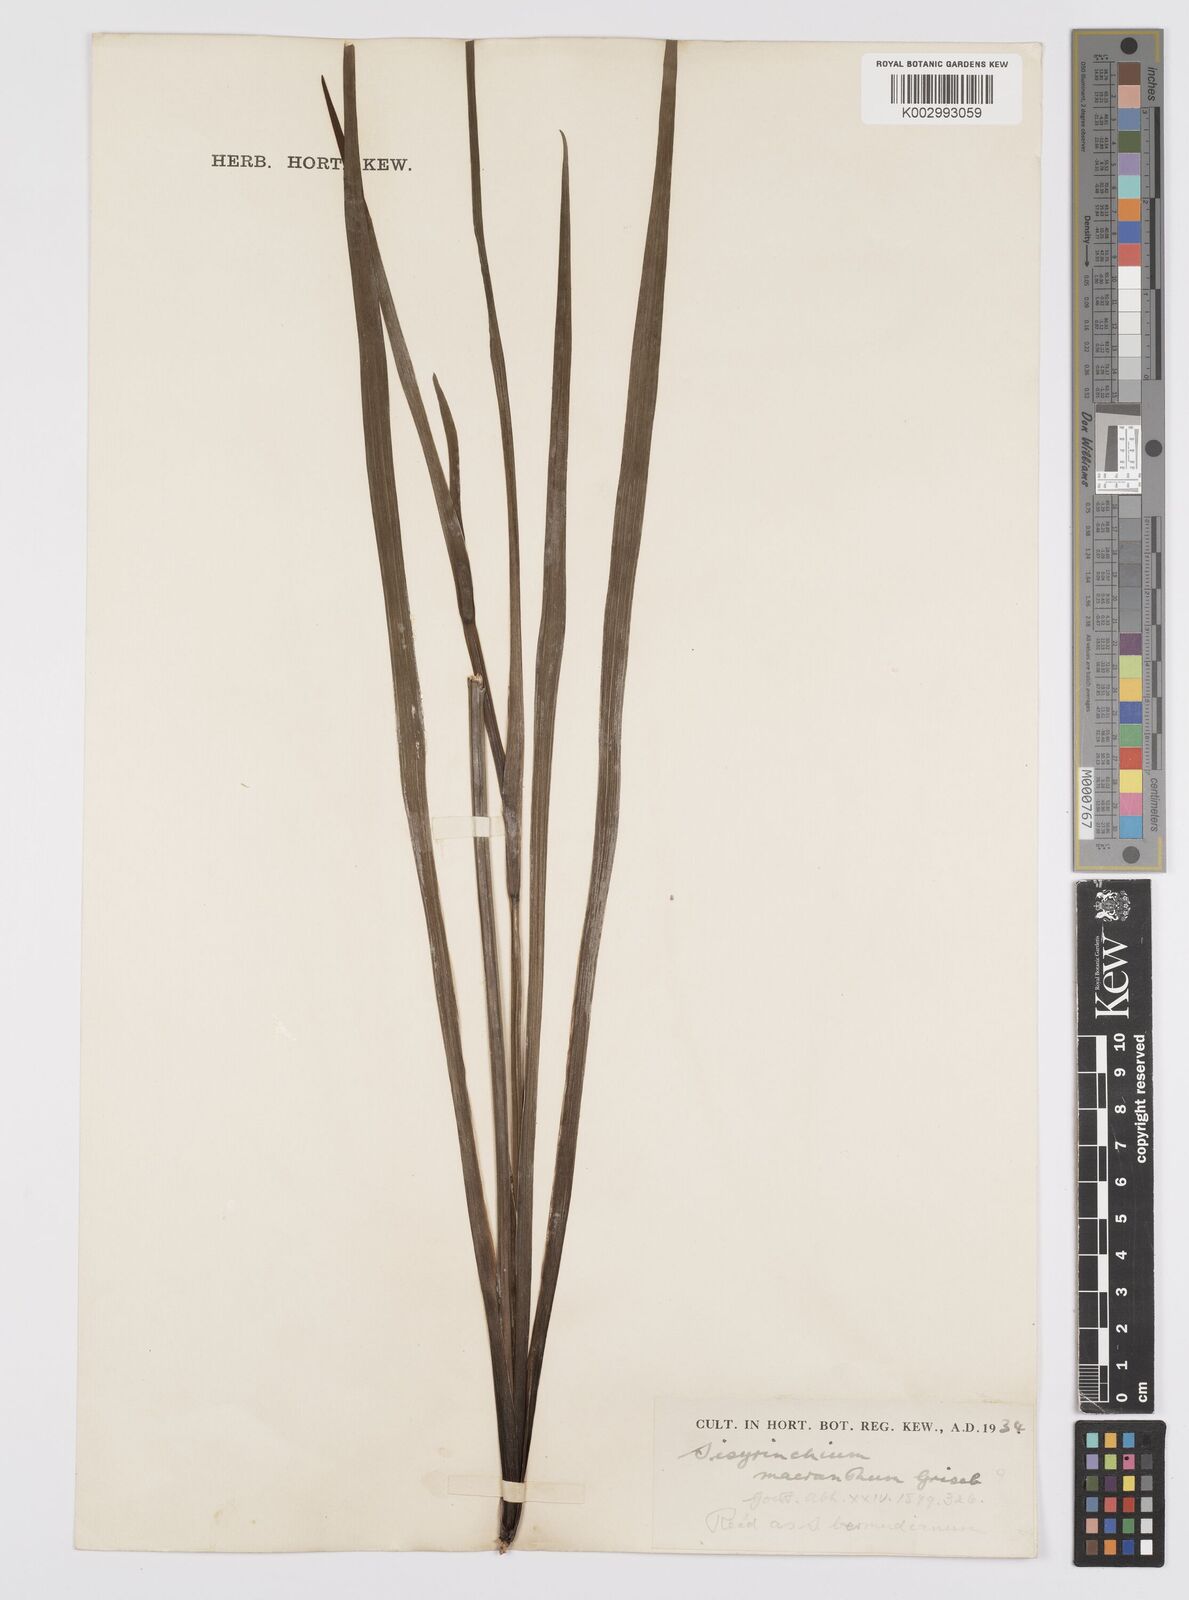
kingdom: Plantae
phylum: Tracheophyta
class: Liliopsida
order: Asparagales
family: Iridaceae
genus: Sisyrinchium
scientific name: Sisyrinchium bermudiana
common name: Blue-eyed-grass
